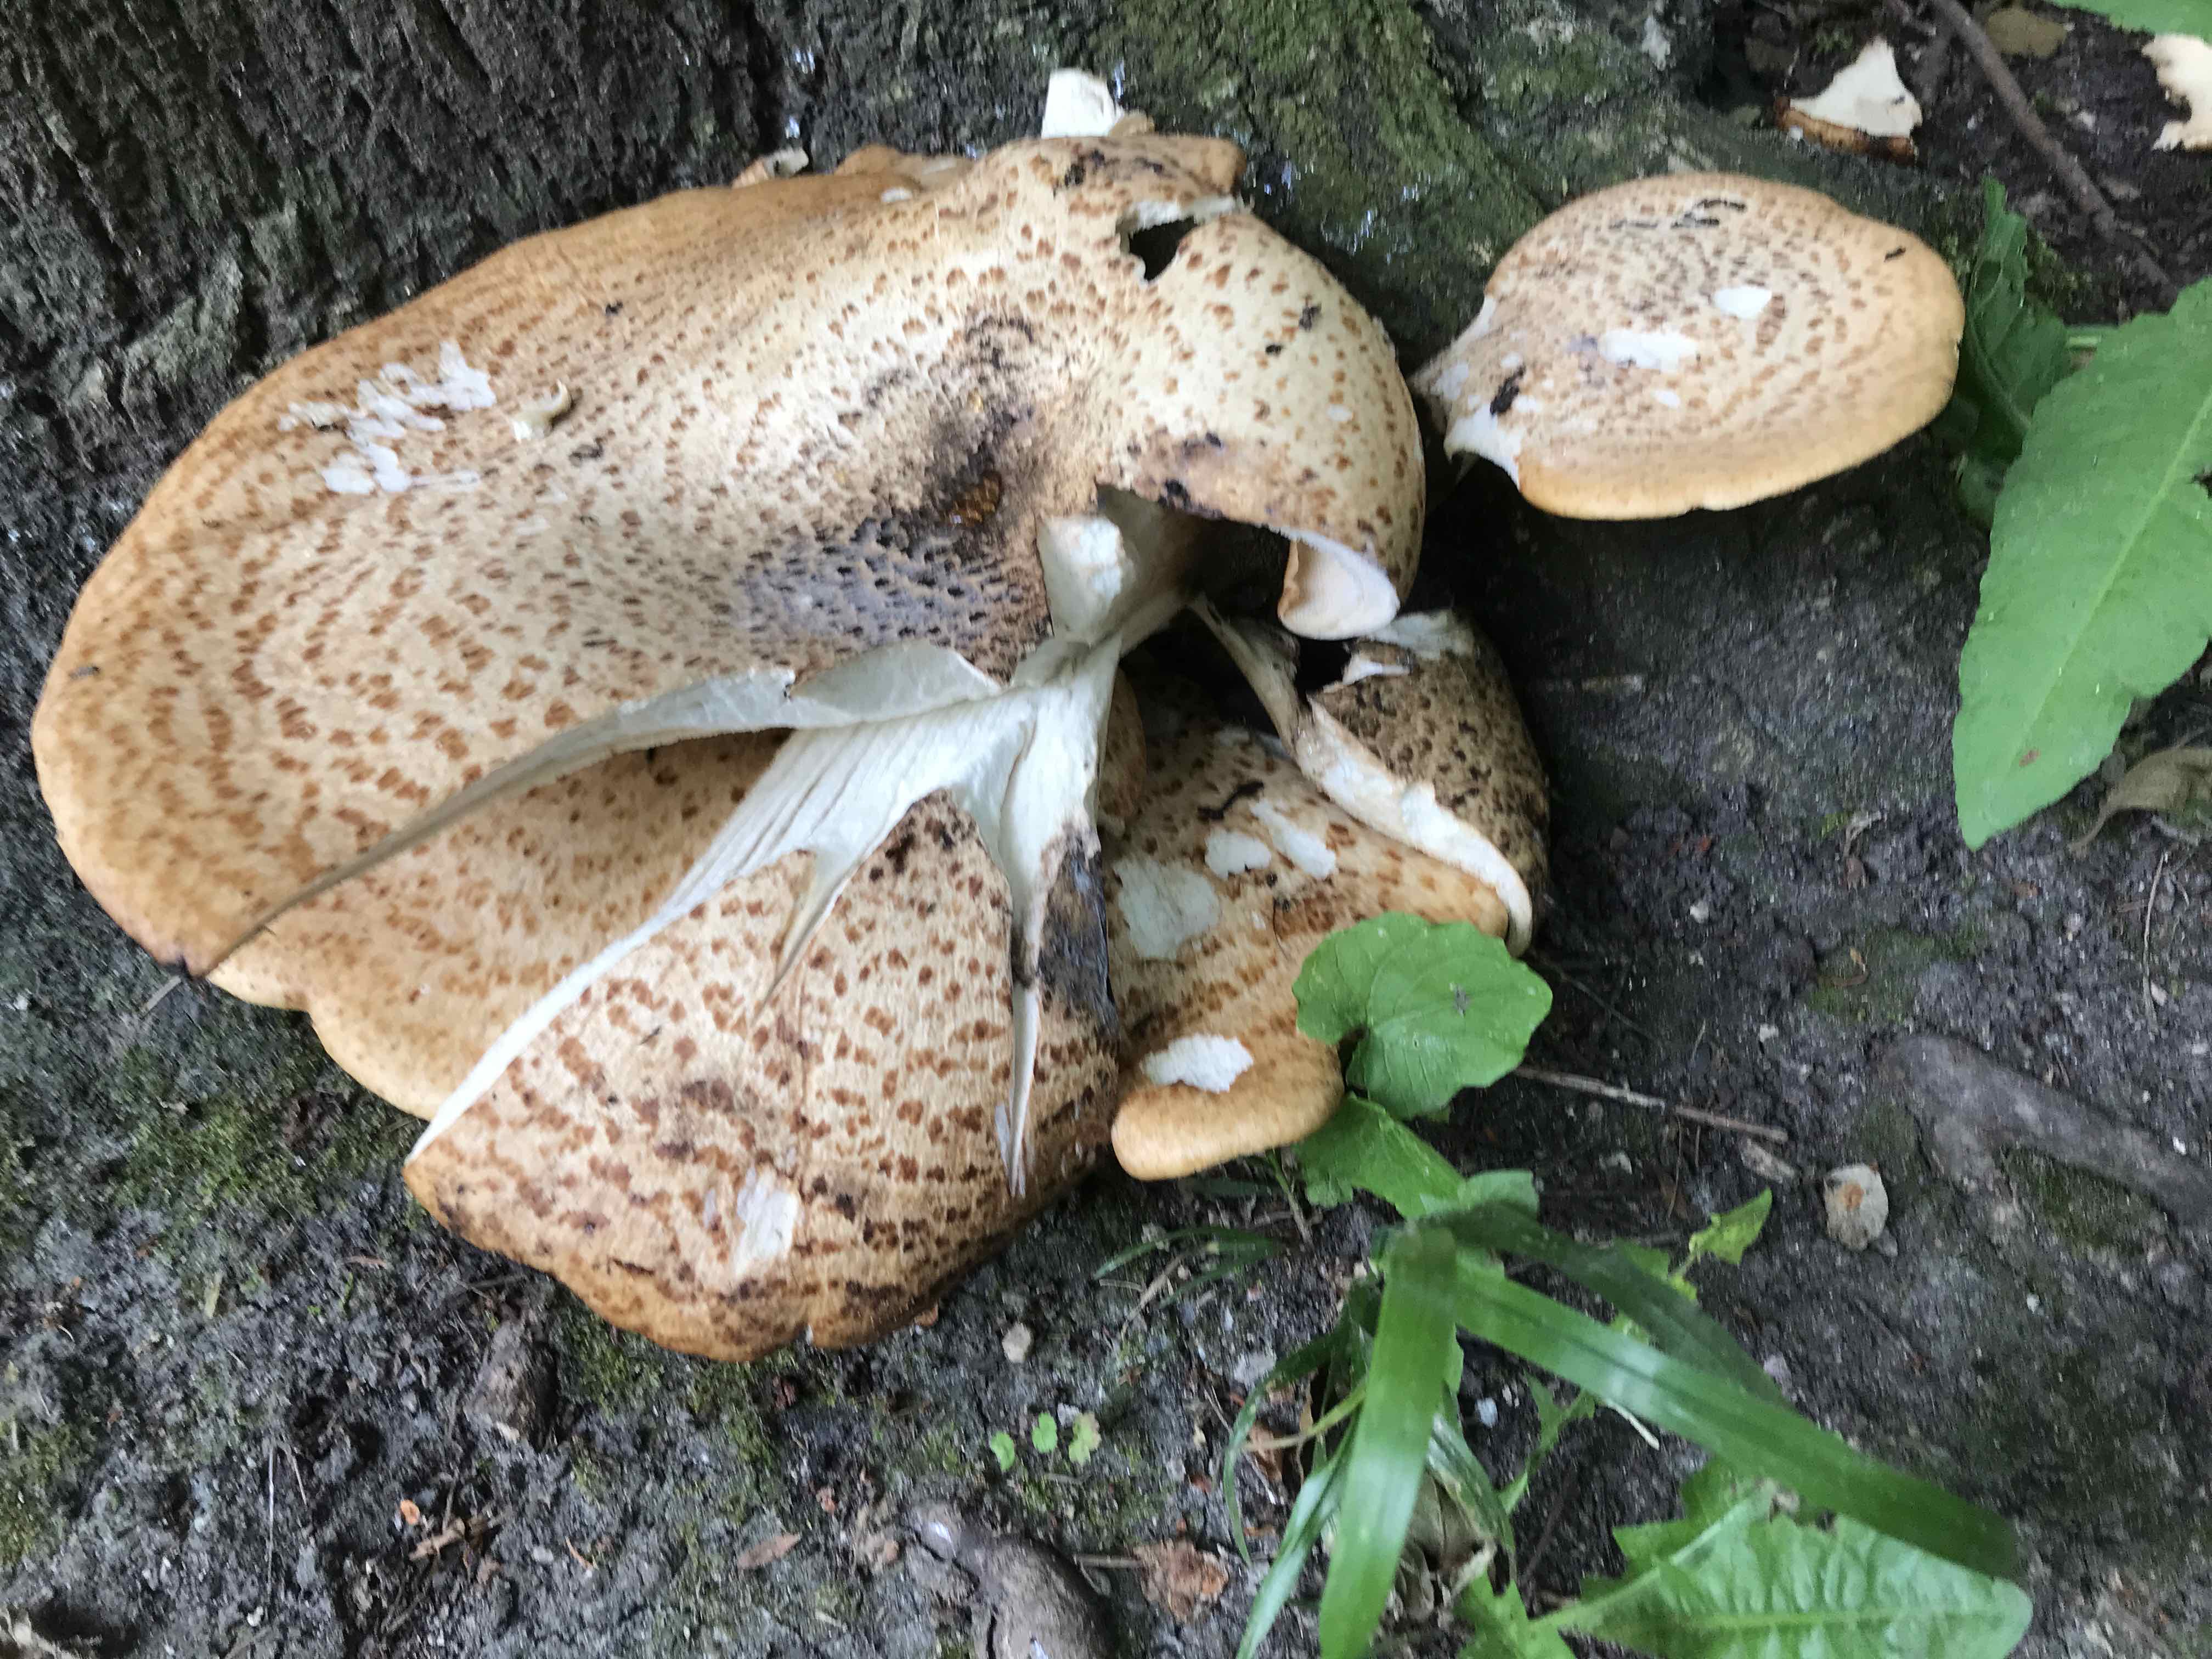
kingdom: Fungi
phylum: Basidiomycota
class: Agaricomycetes
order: Polyporales
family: Polyporaceae
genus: Cerioporus
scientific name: Cerioporus squamosus
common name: skællet stilkporesvamp
